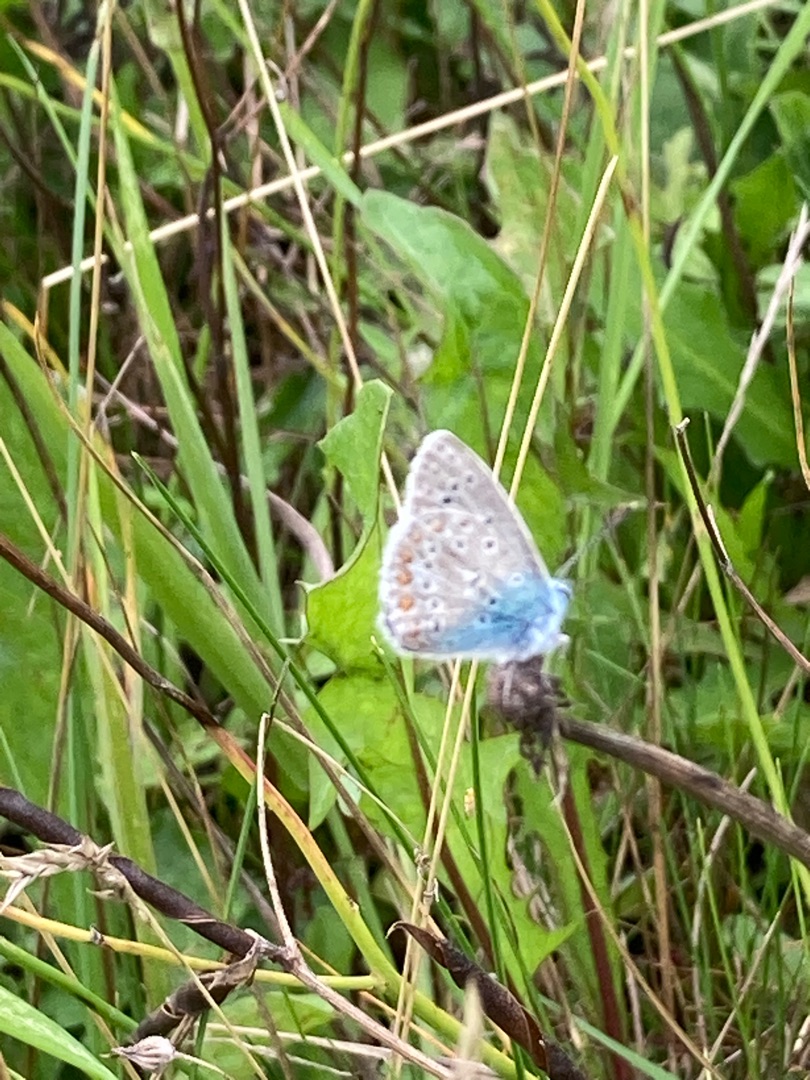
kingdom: Animalia
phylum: Arthropoda
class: Insecta
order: Lepidoptera
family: Lycaenidae
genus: Polyommatus
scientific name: Polyommatus icarus
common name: Almindelig blåfugl
